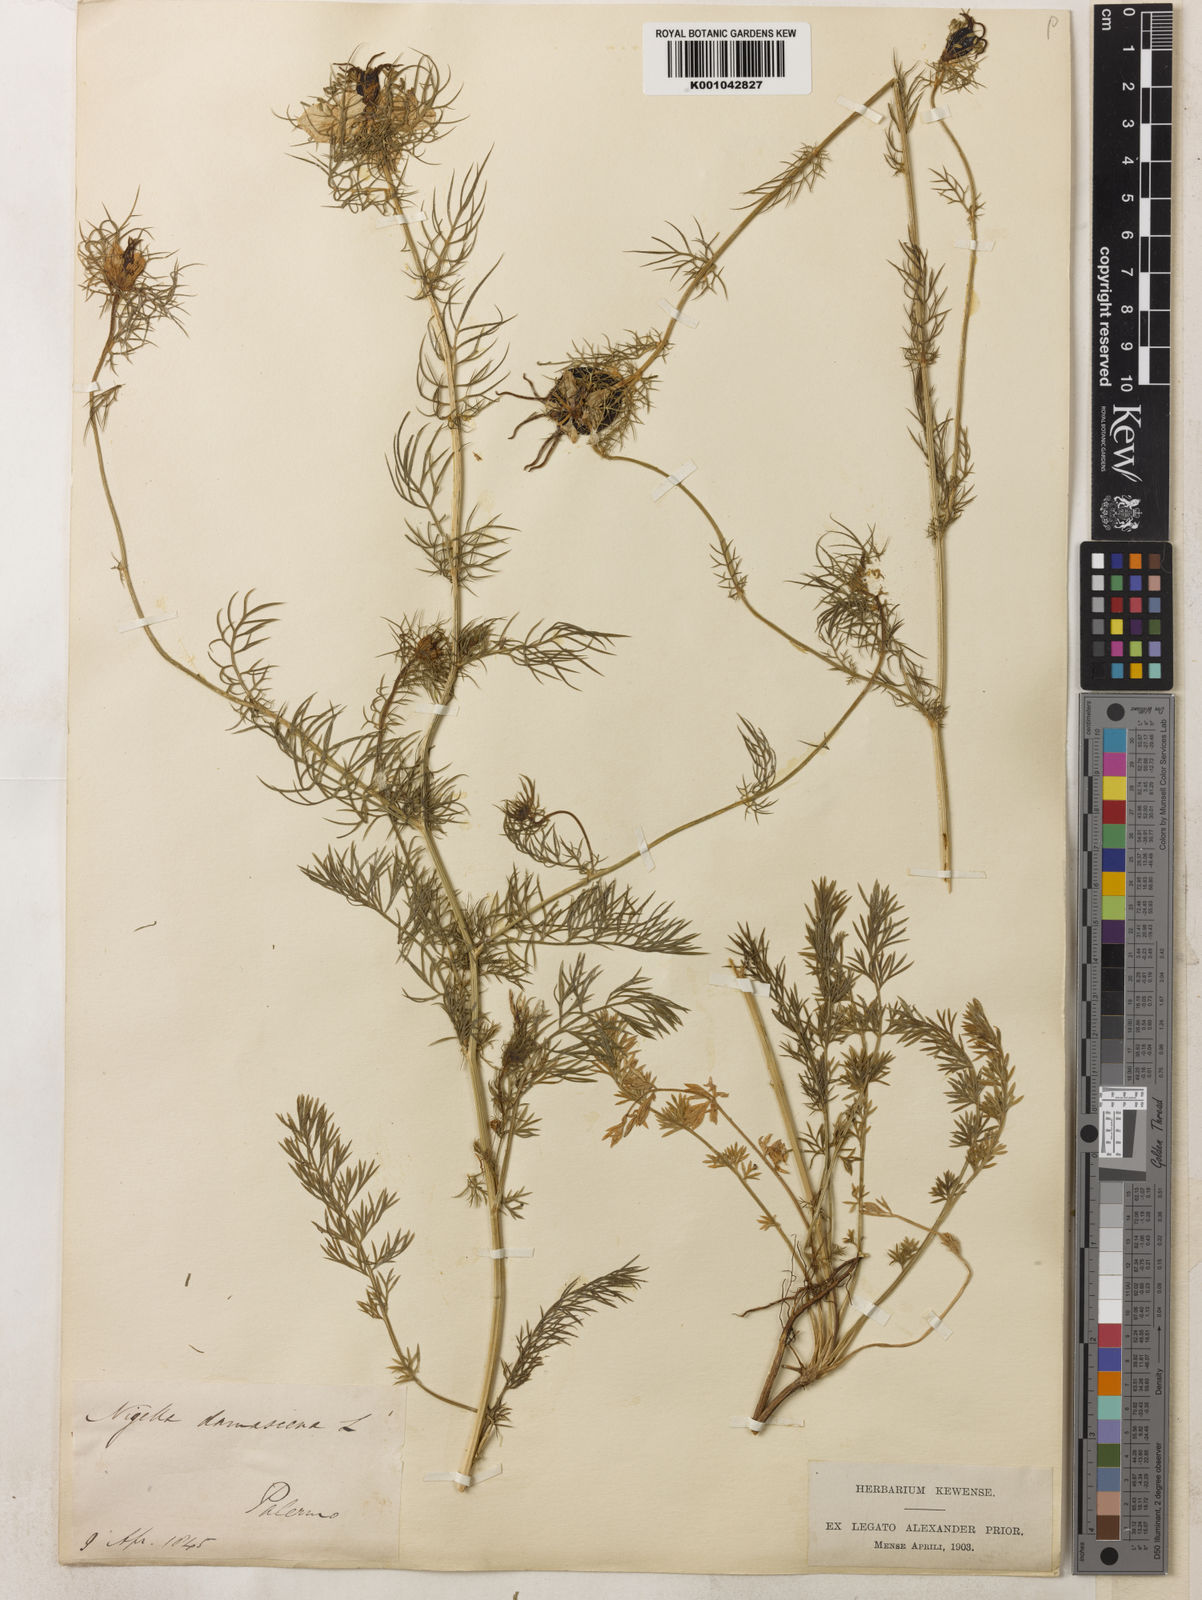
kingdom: Plantae
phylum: Tracheophyta
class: Magnoliopsida
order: Ranunculales
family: Ranunculaceae
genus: Nigella
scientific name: Nigella damascena
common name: Love-in-a-mist
